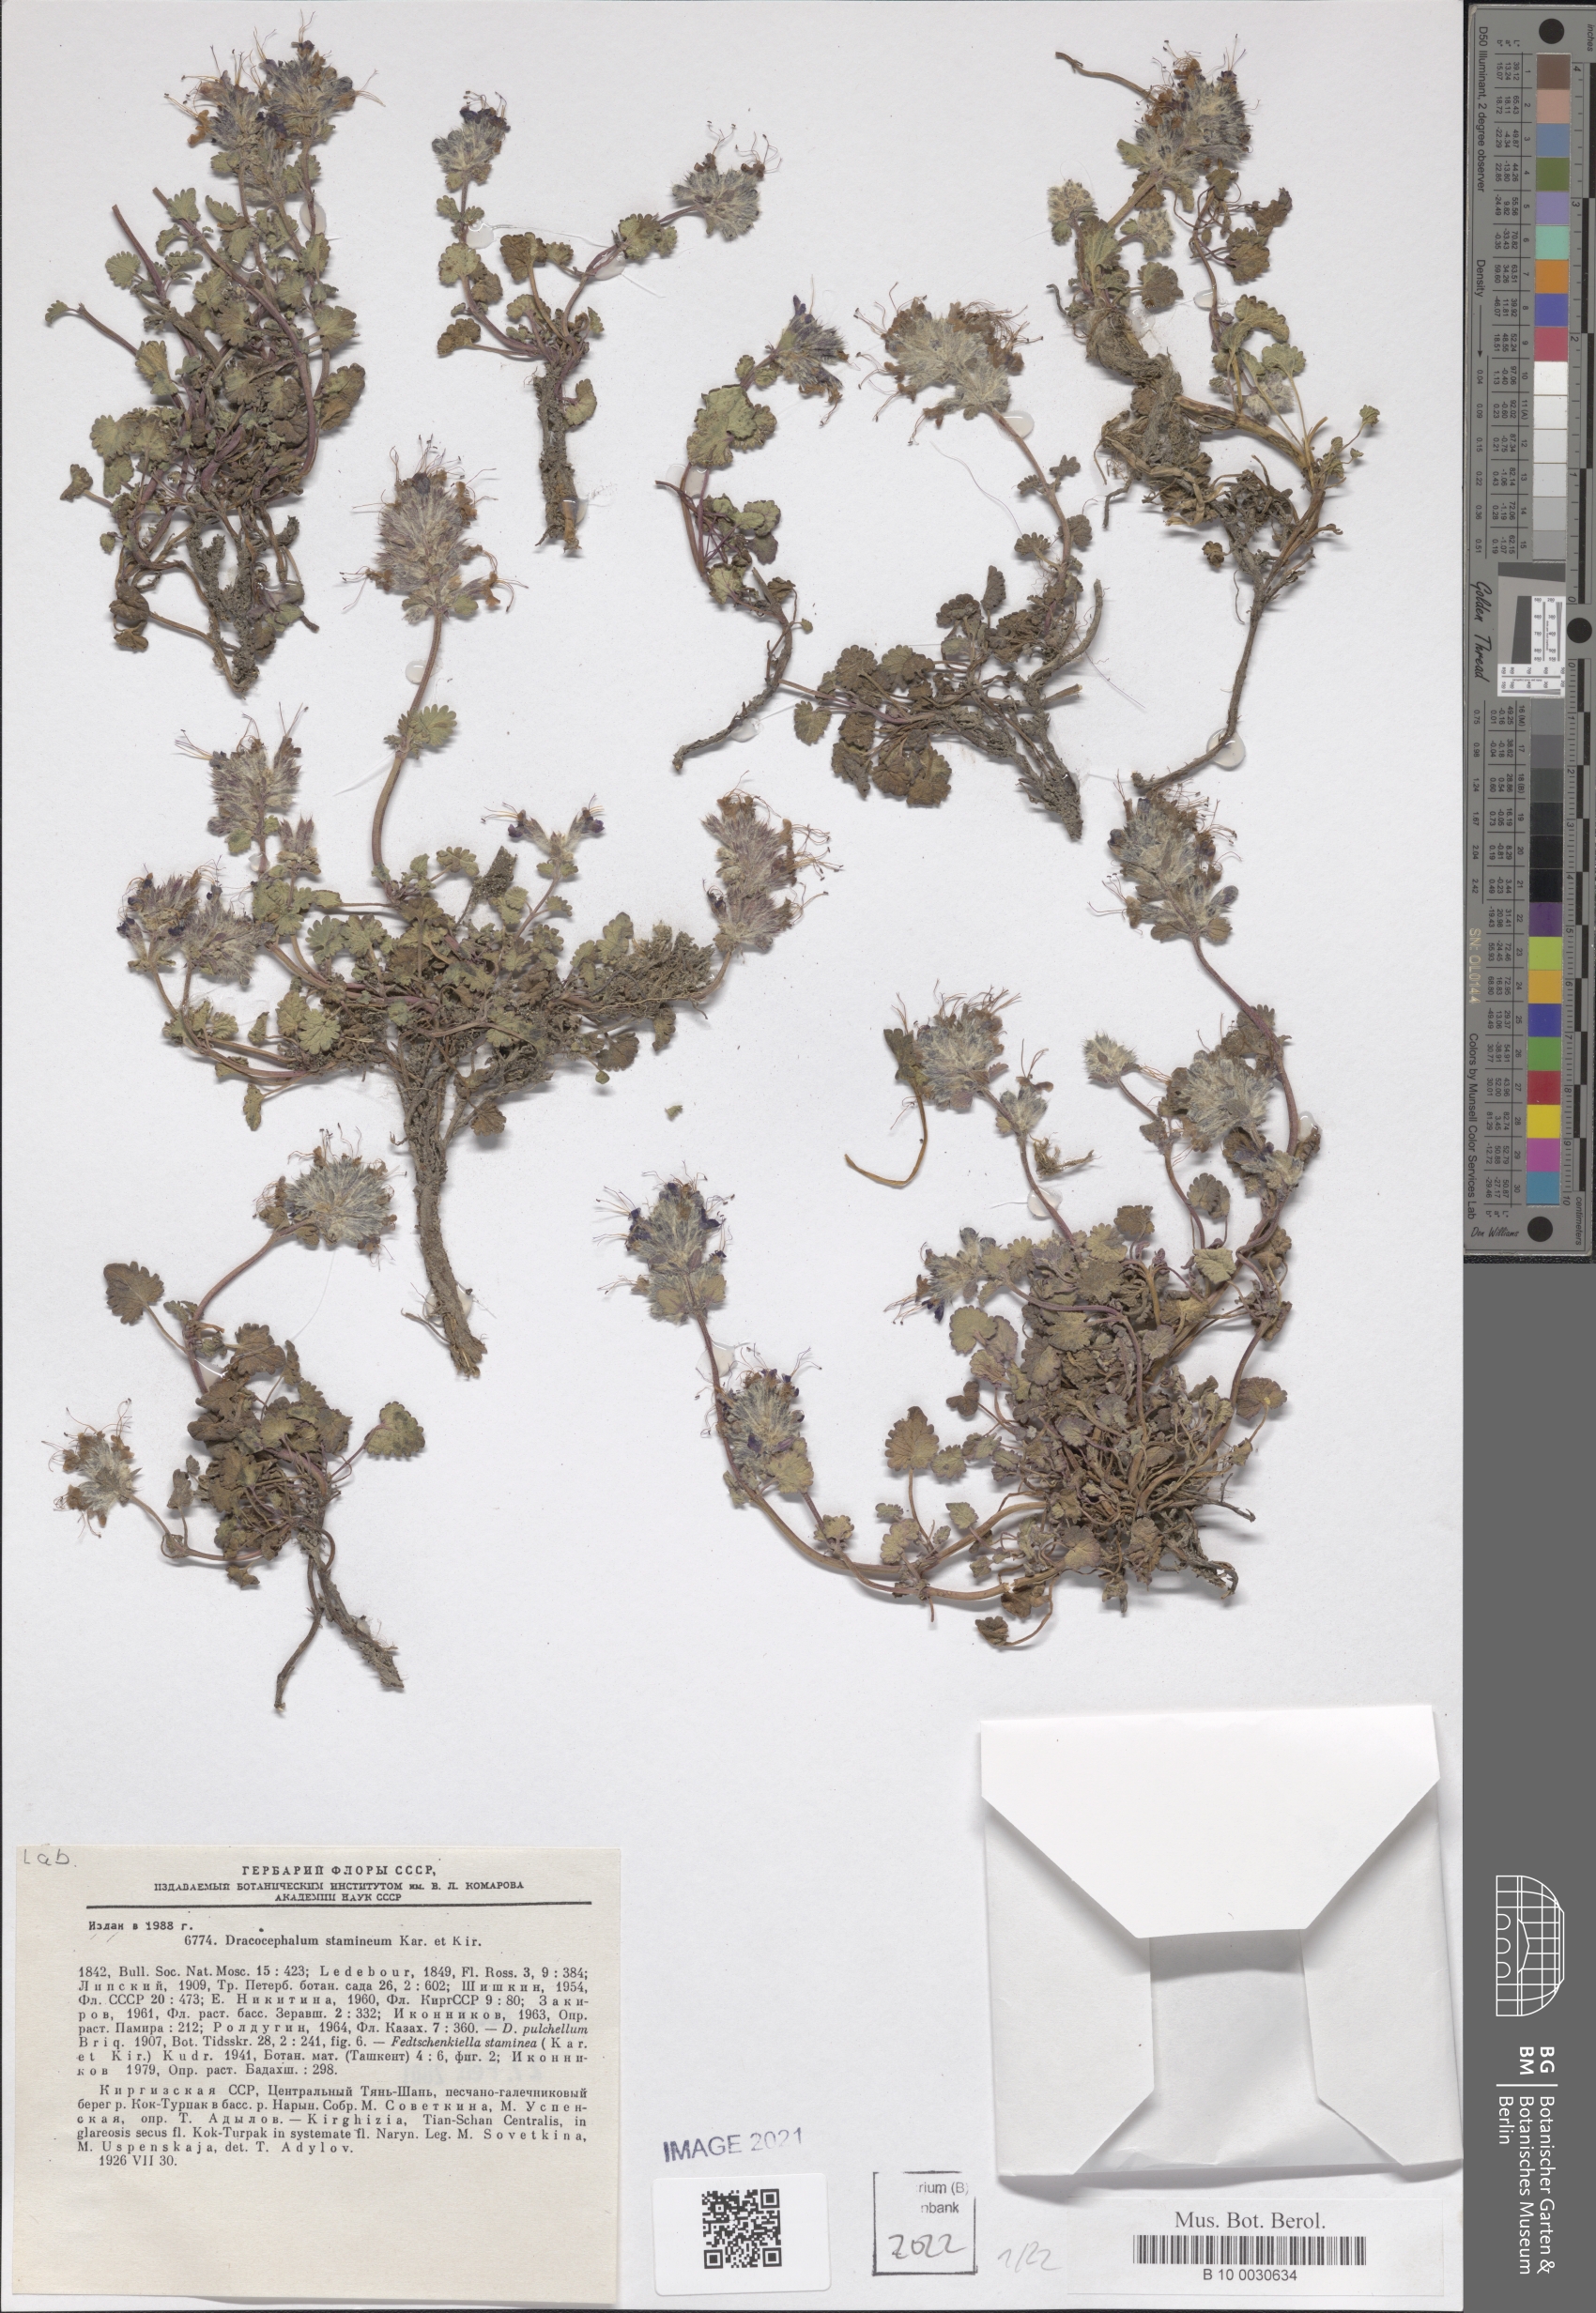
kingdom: Plantae
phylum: Tracheophyta
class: Magnoliopsida
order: Lamiales
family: Lamiaceae
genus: Dracocephalum
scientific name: Dracocephalum stamineum
